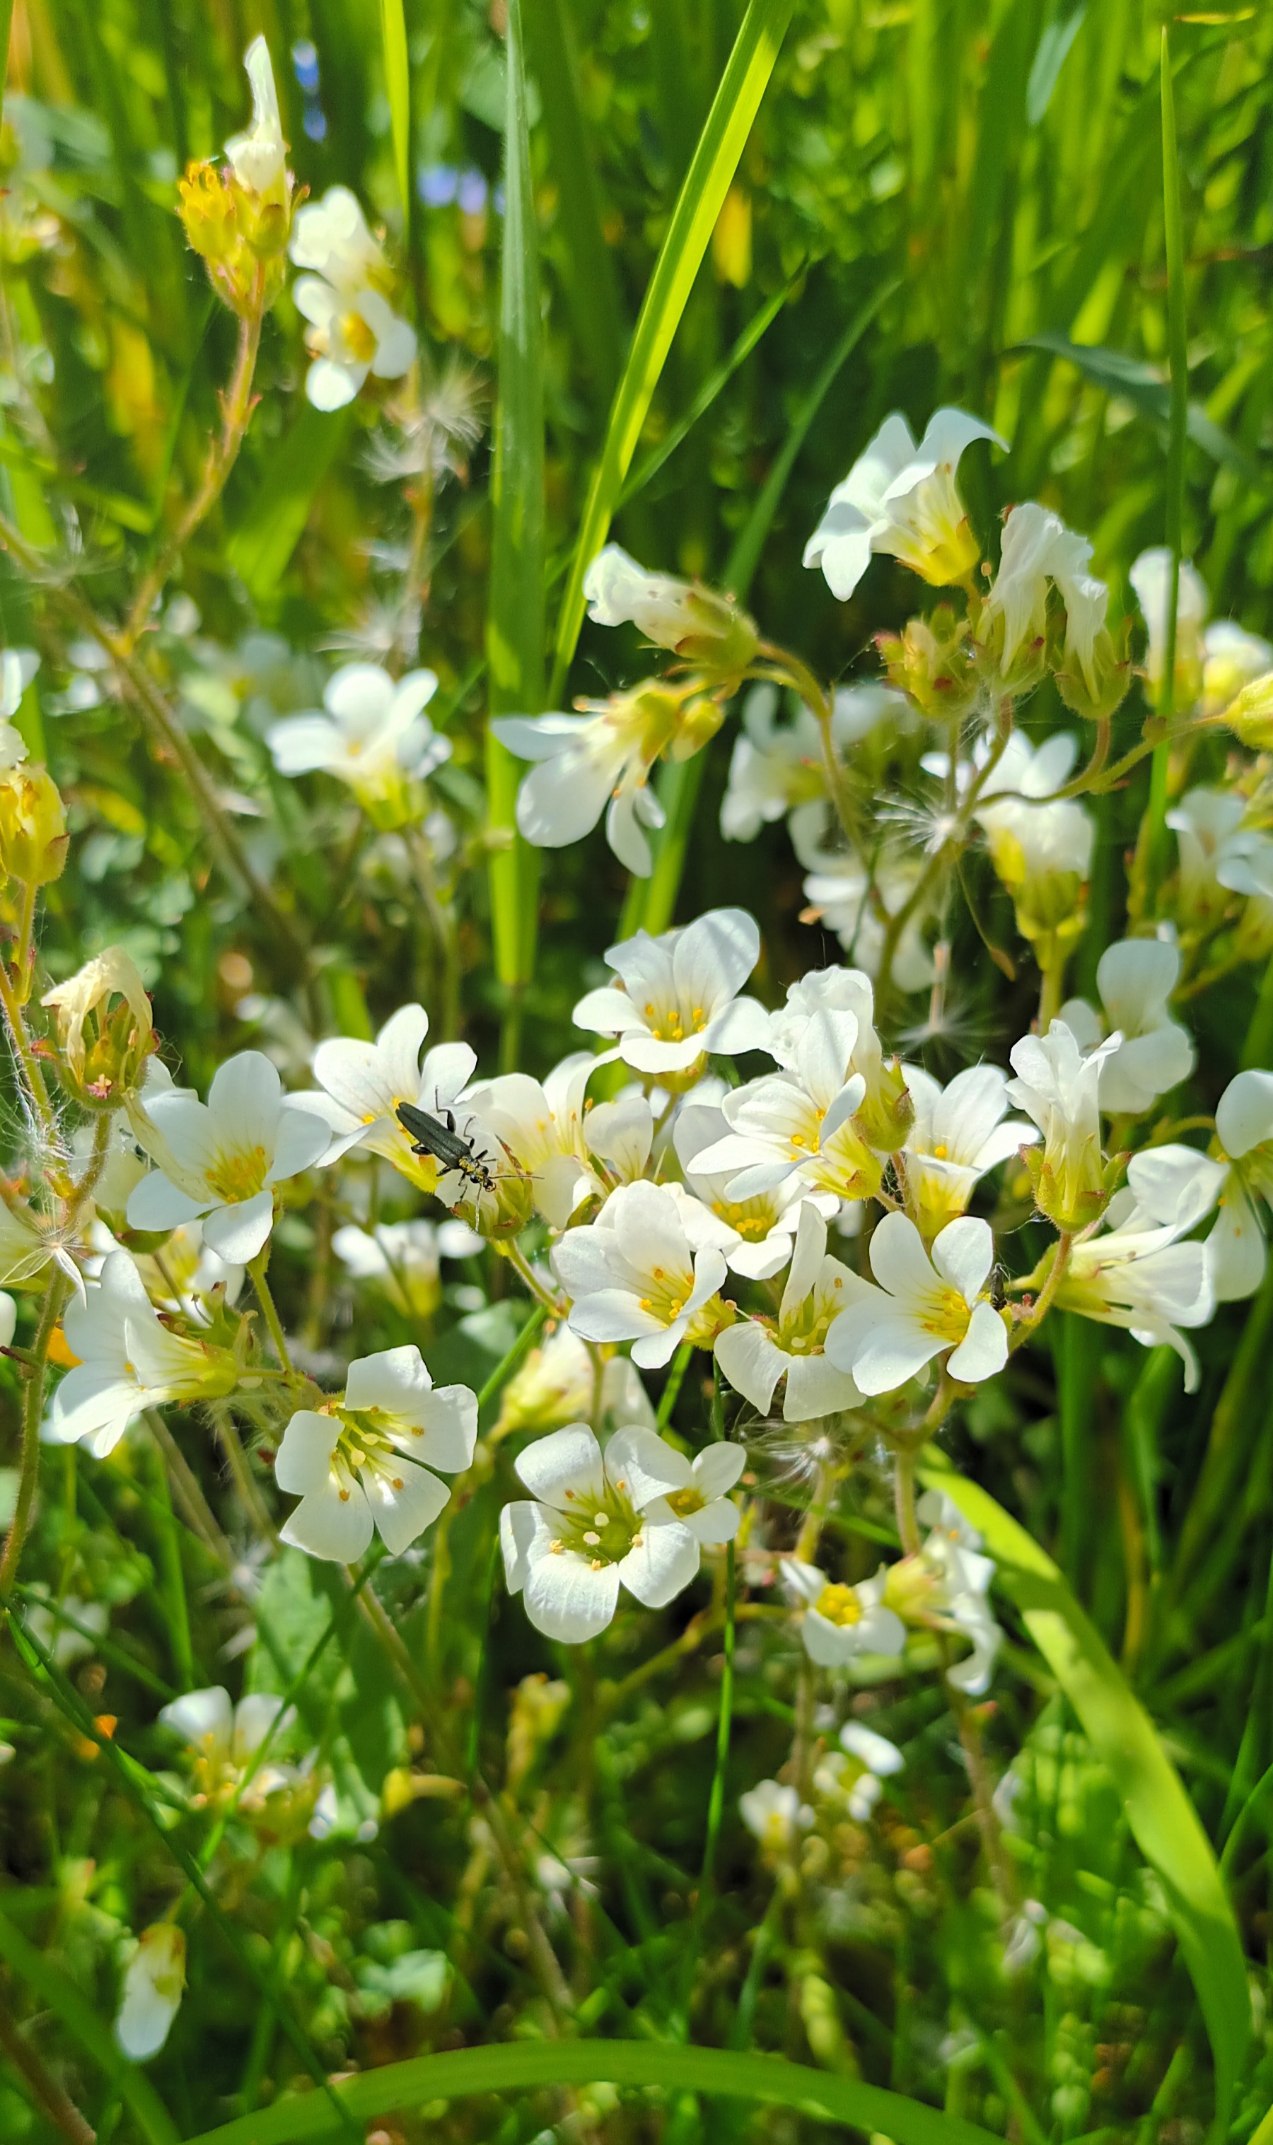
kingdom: Plantae
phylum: Tracheophyta
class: Magnoliopsida
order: Saxifragales
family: Saxifragaceae
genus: Saxifraga
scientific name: Saxifraga granulata
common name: Kornet stenbræk
